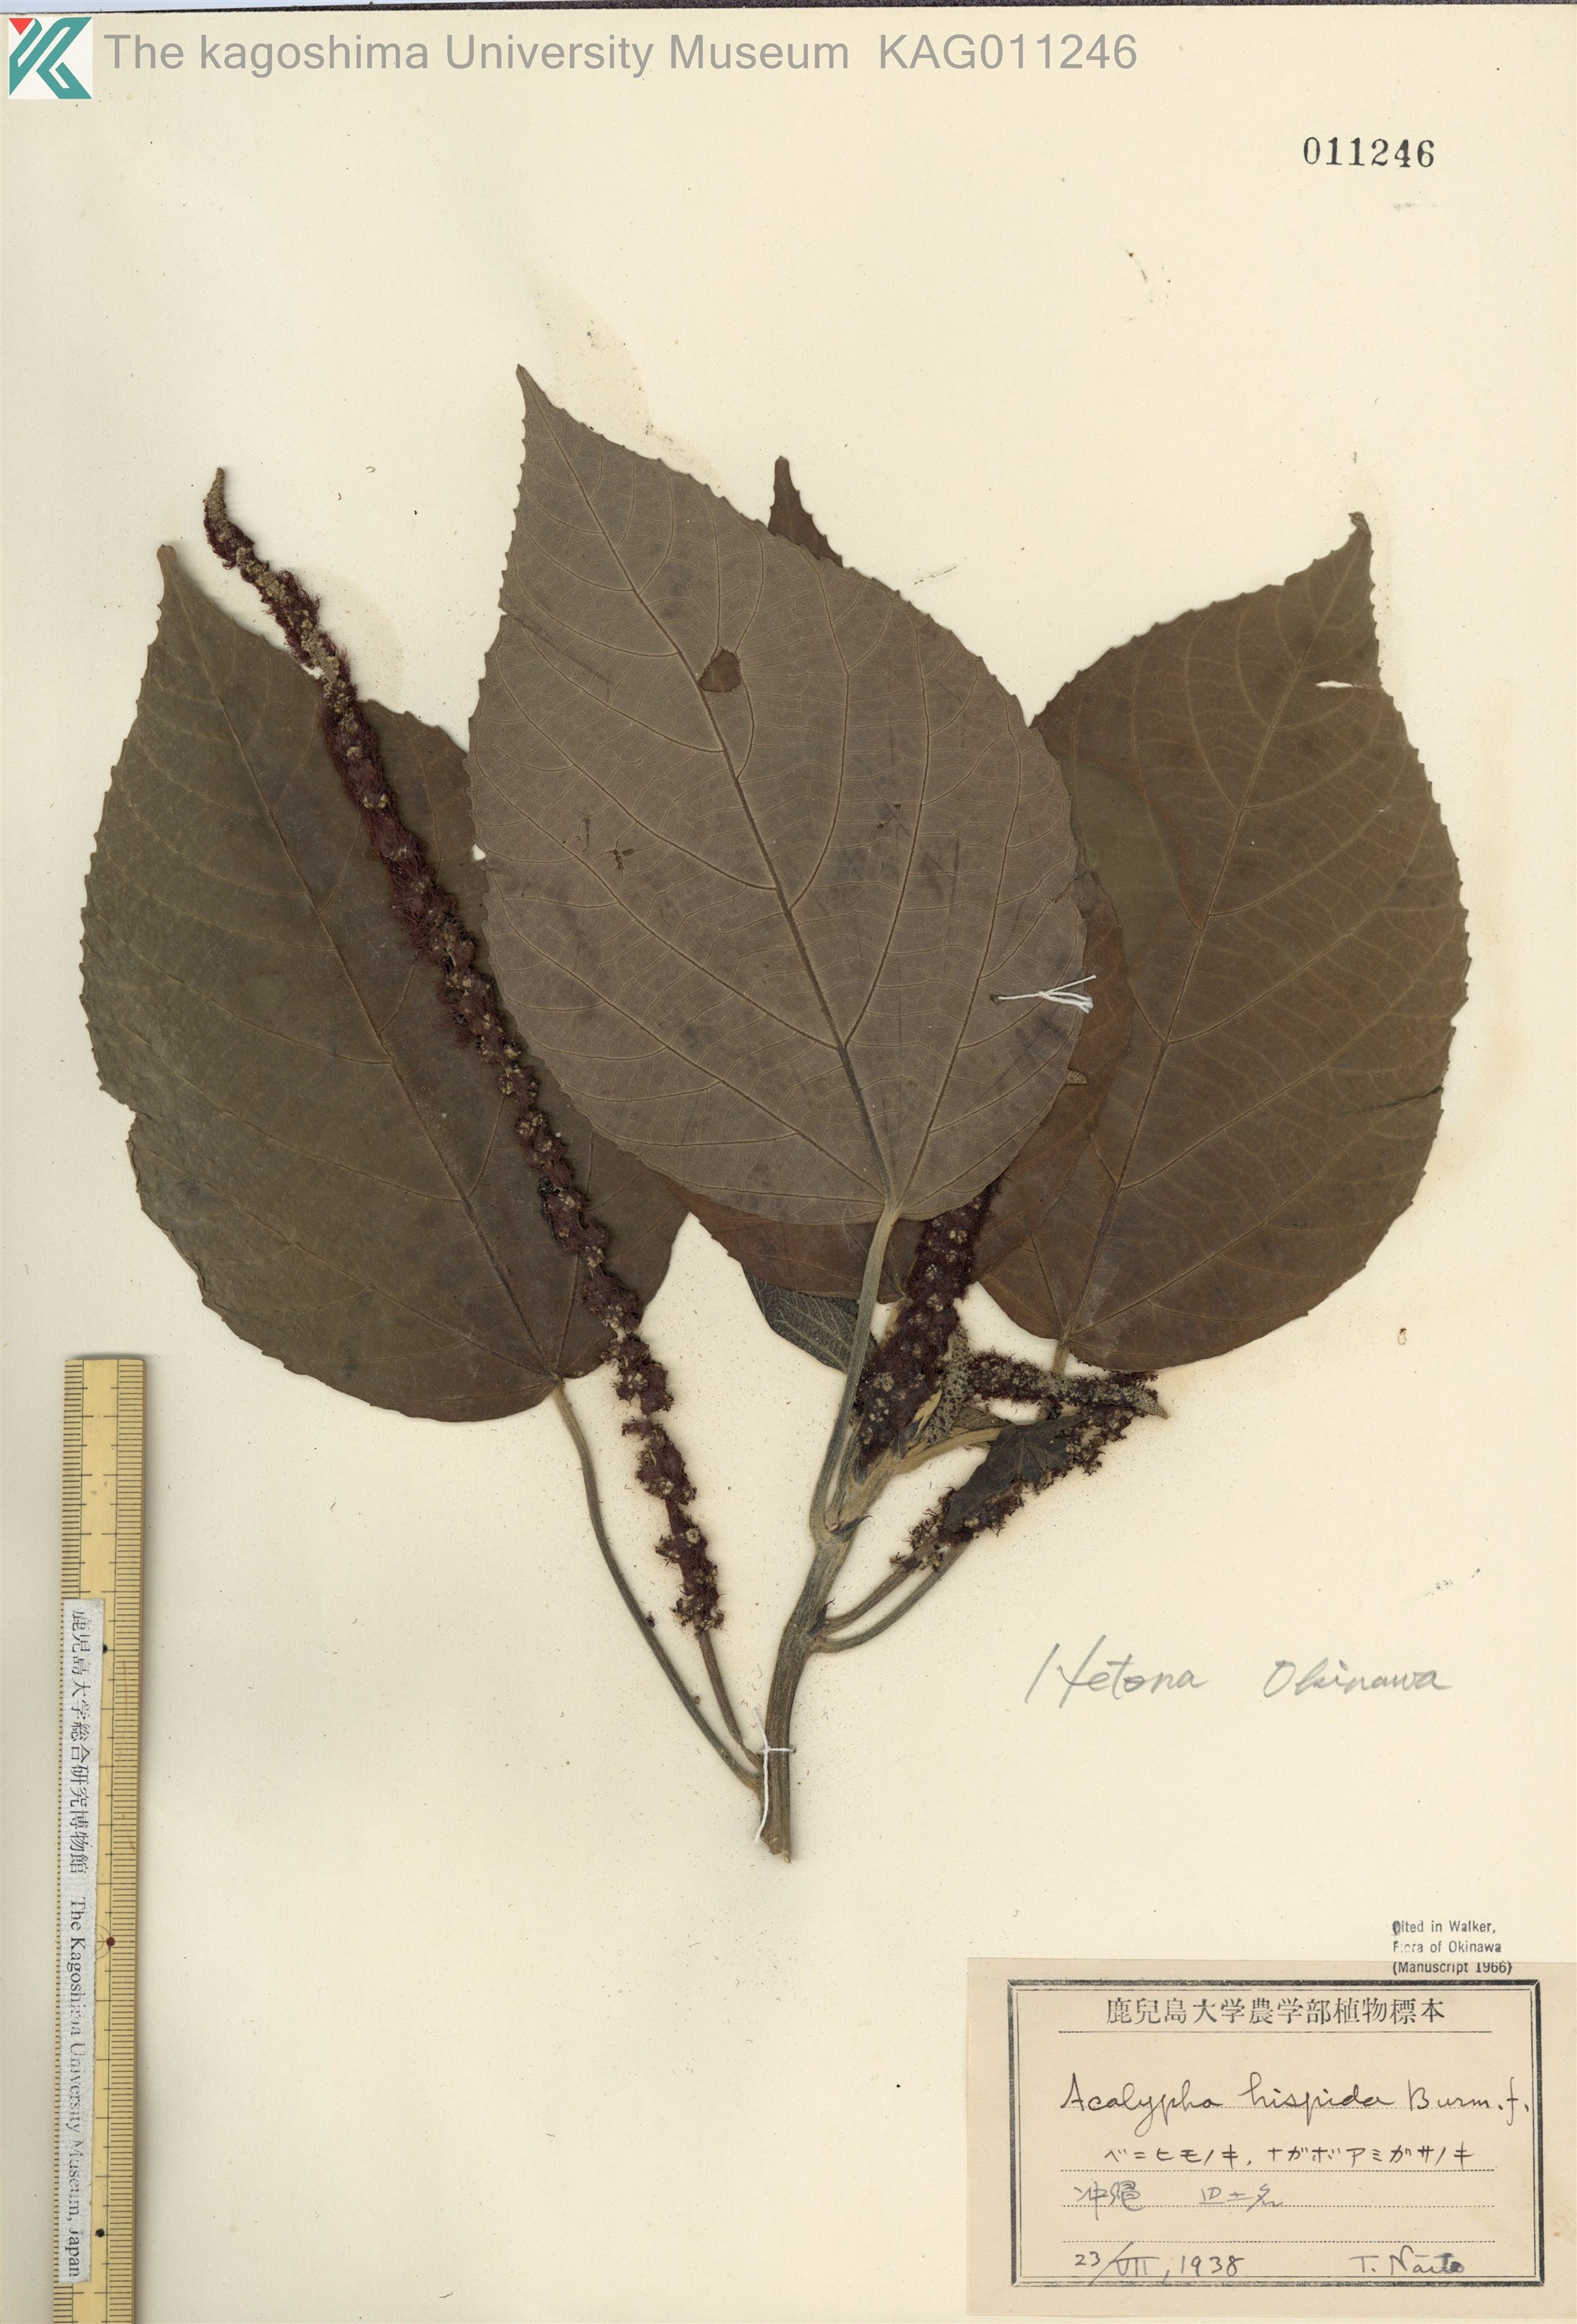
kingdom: Plantae
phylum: Tracheophyta
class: Magnoliopsida
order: Malpighiales
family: Euphorbiaceae
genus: Acalypha
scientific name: Acalypha hispida
